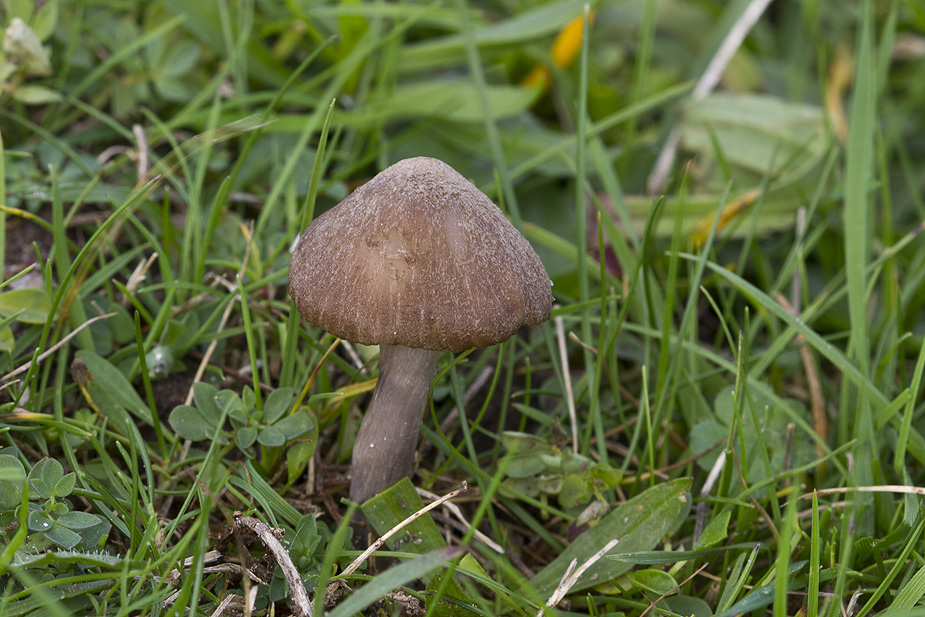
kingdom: Fungi
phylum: Basidiomycota
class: Agaricomycetes
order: Agaricales
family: Entolomataceae
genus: Entoloma
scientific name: Entoloma griseocyaneum
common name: gråblå rødblad
